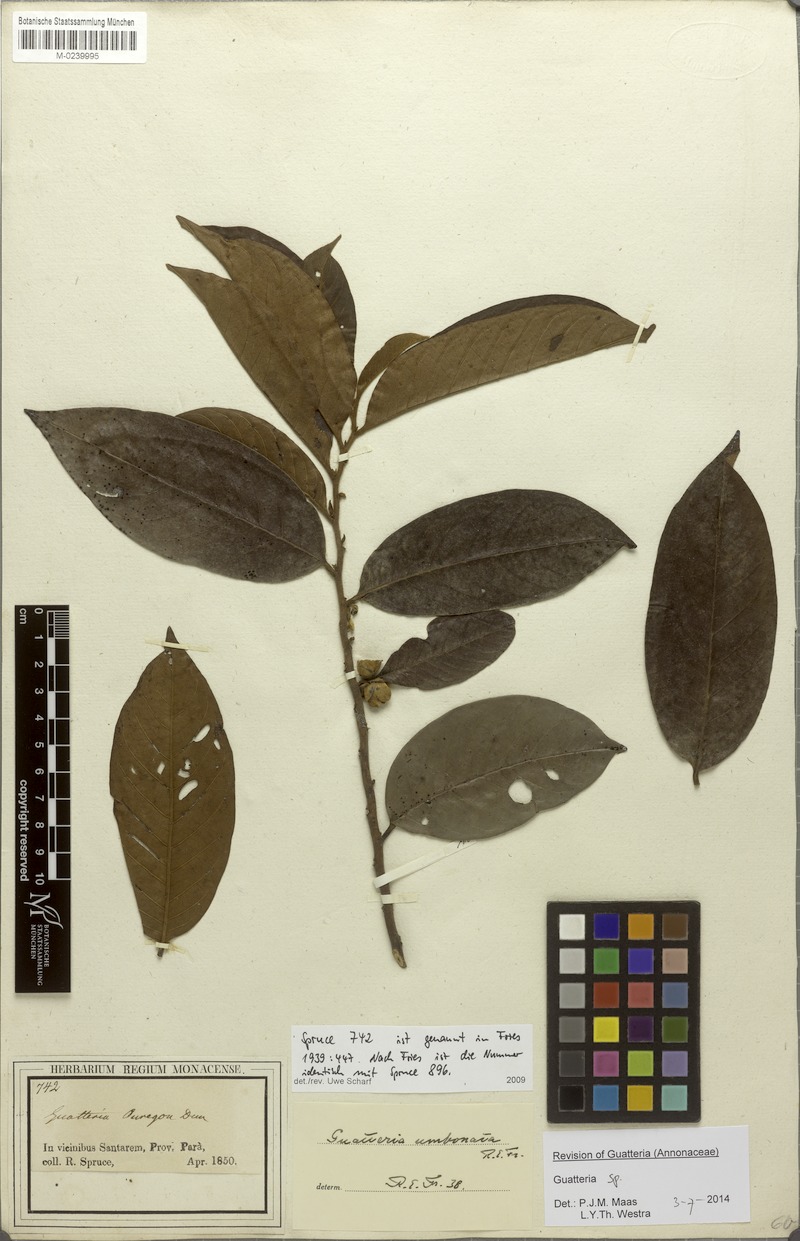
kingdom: Plantae
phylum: Tracheophyta
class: Magnoliopsida
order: Magnoliales
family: Annonaceae
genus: Guatteria
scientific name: Guatteria umbonata
